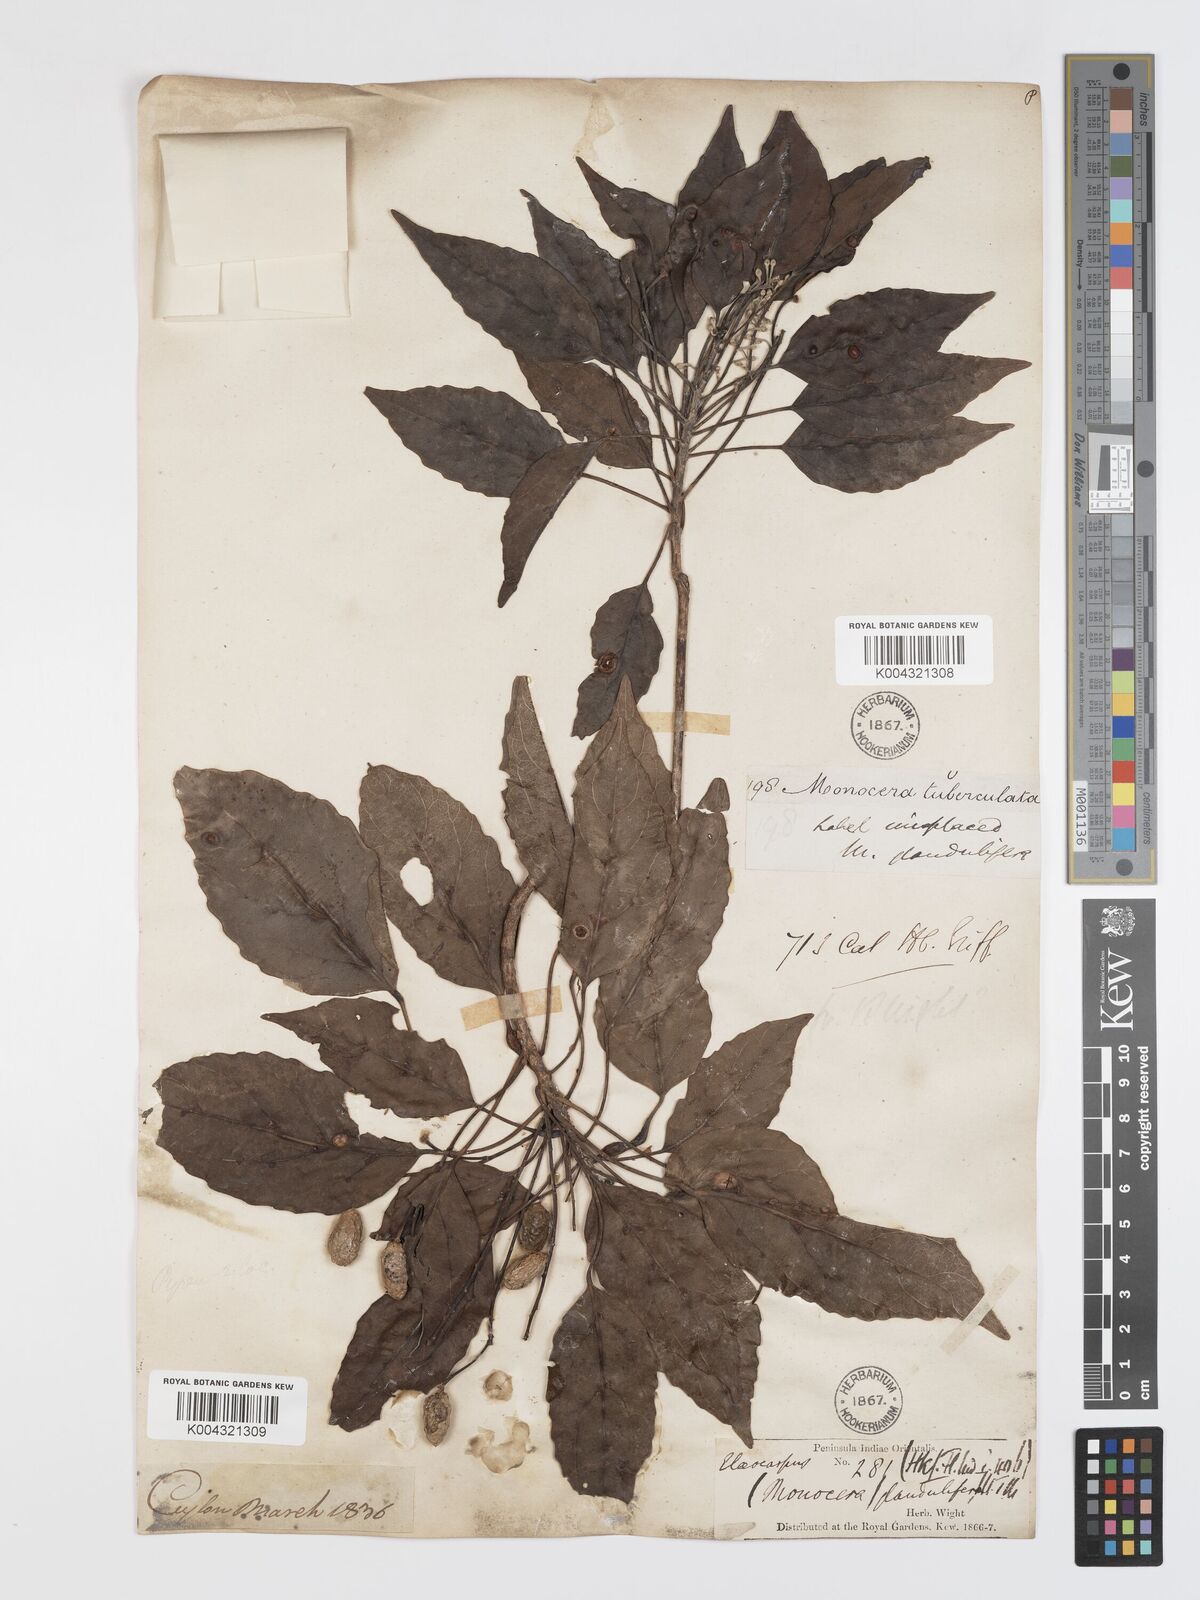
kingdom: Plantae
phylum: Tracheophyta
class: Magnoliopsida
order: Oxalidales
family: Elaeocarpaceae
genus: Elaeocarpus
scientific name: Elaeocarpus glandulifer
